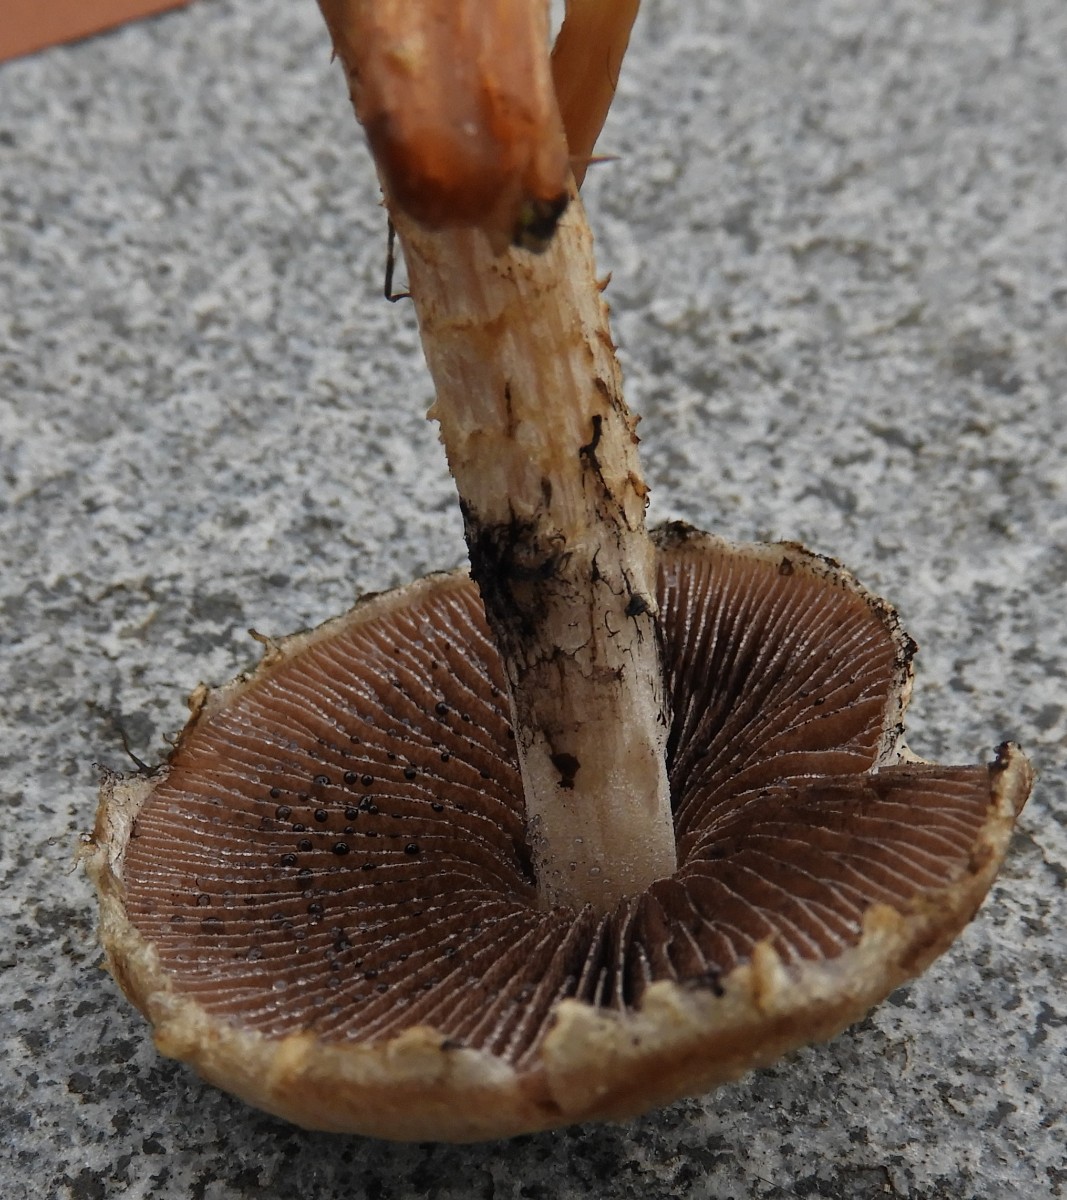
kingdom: Fungi
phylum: Basidiomycota
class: Agaricomycetes
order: Agaricales
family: Psathyrellaceae
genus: Lacrymaria
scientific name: Lacrymaria lacrymabunda
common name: grædende mørkhat
